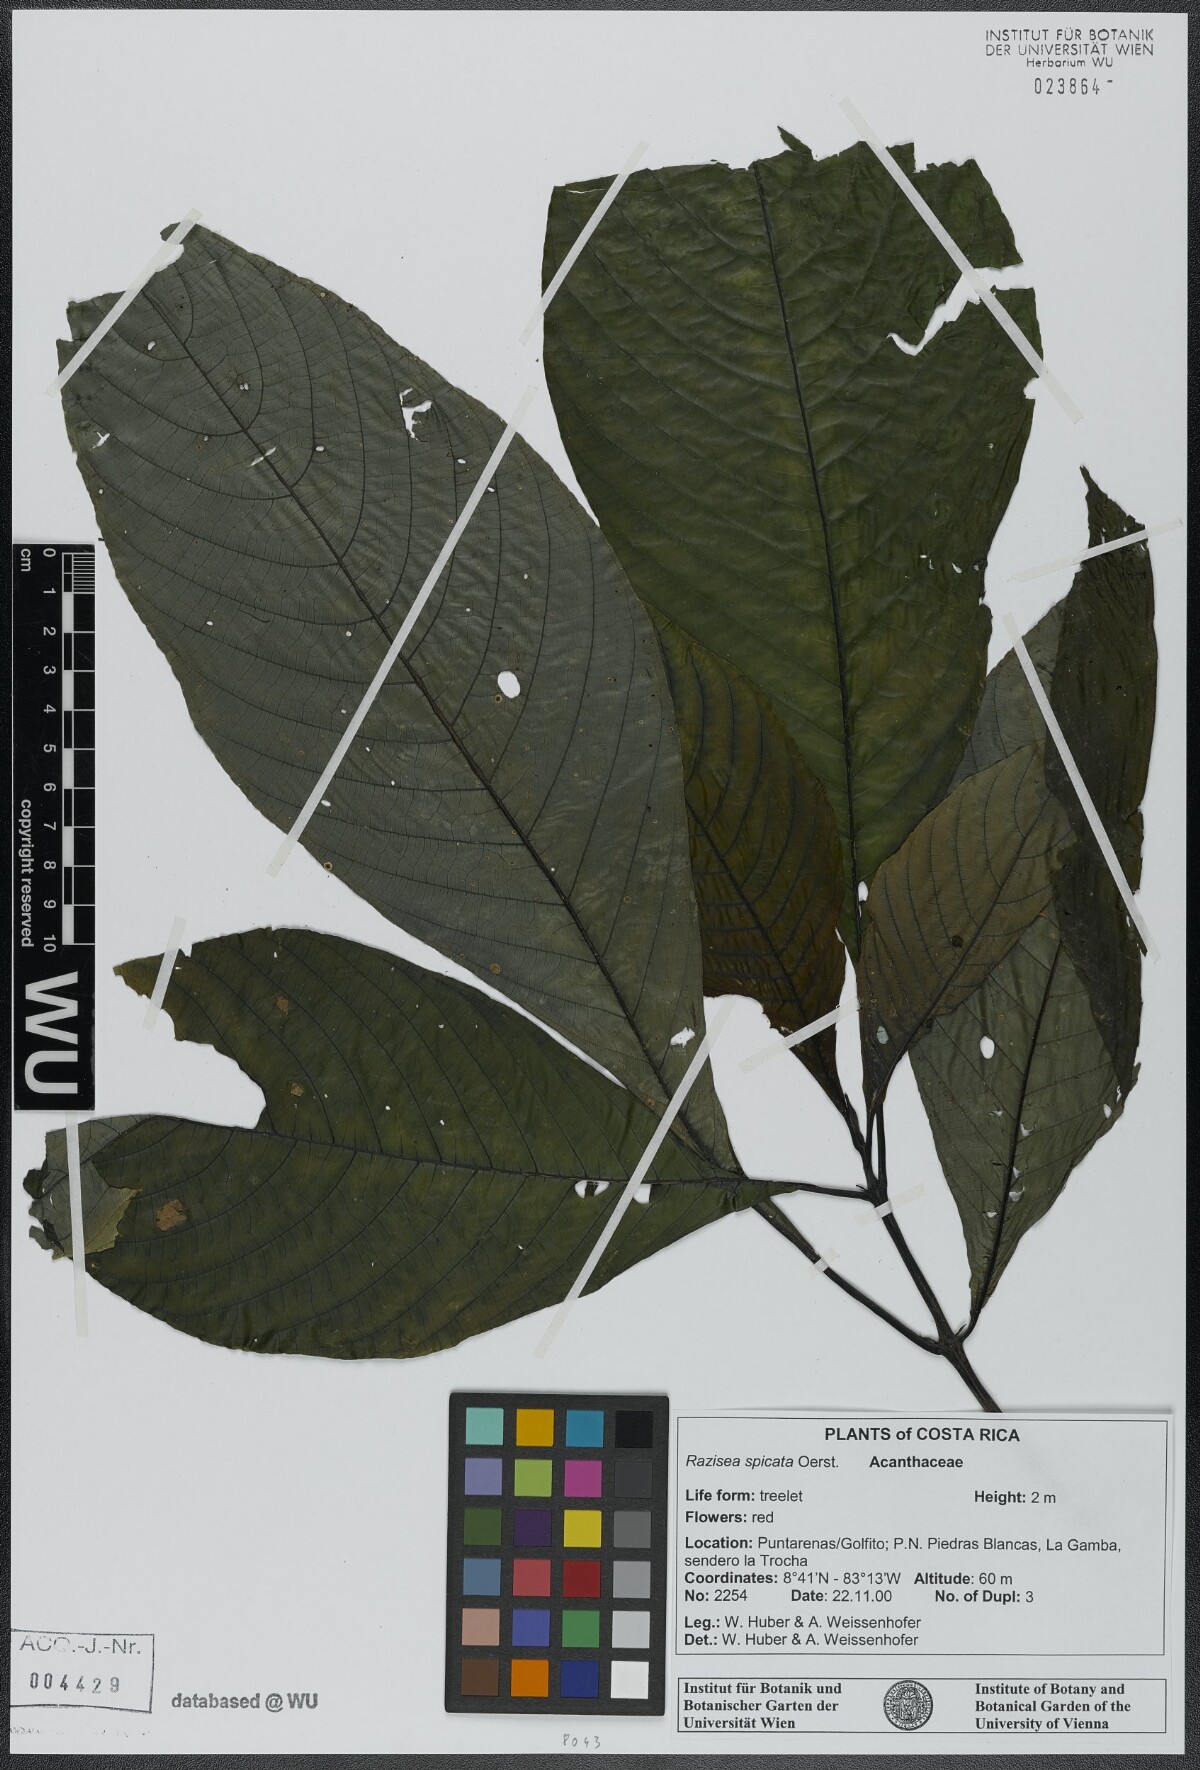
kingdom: Plantae
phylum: Tracheophyta
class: Magnoliopsida
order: Lamiales
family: Acanthaceae
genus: Stenostephanus
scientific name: Stenostephanus leiorhachis
